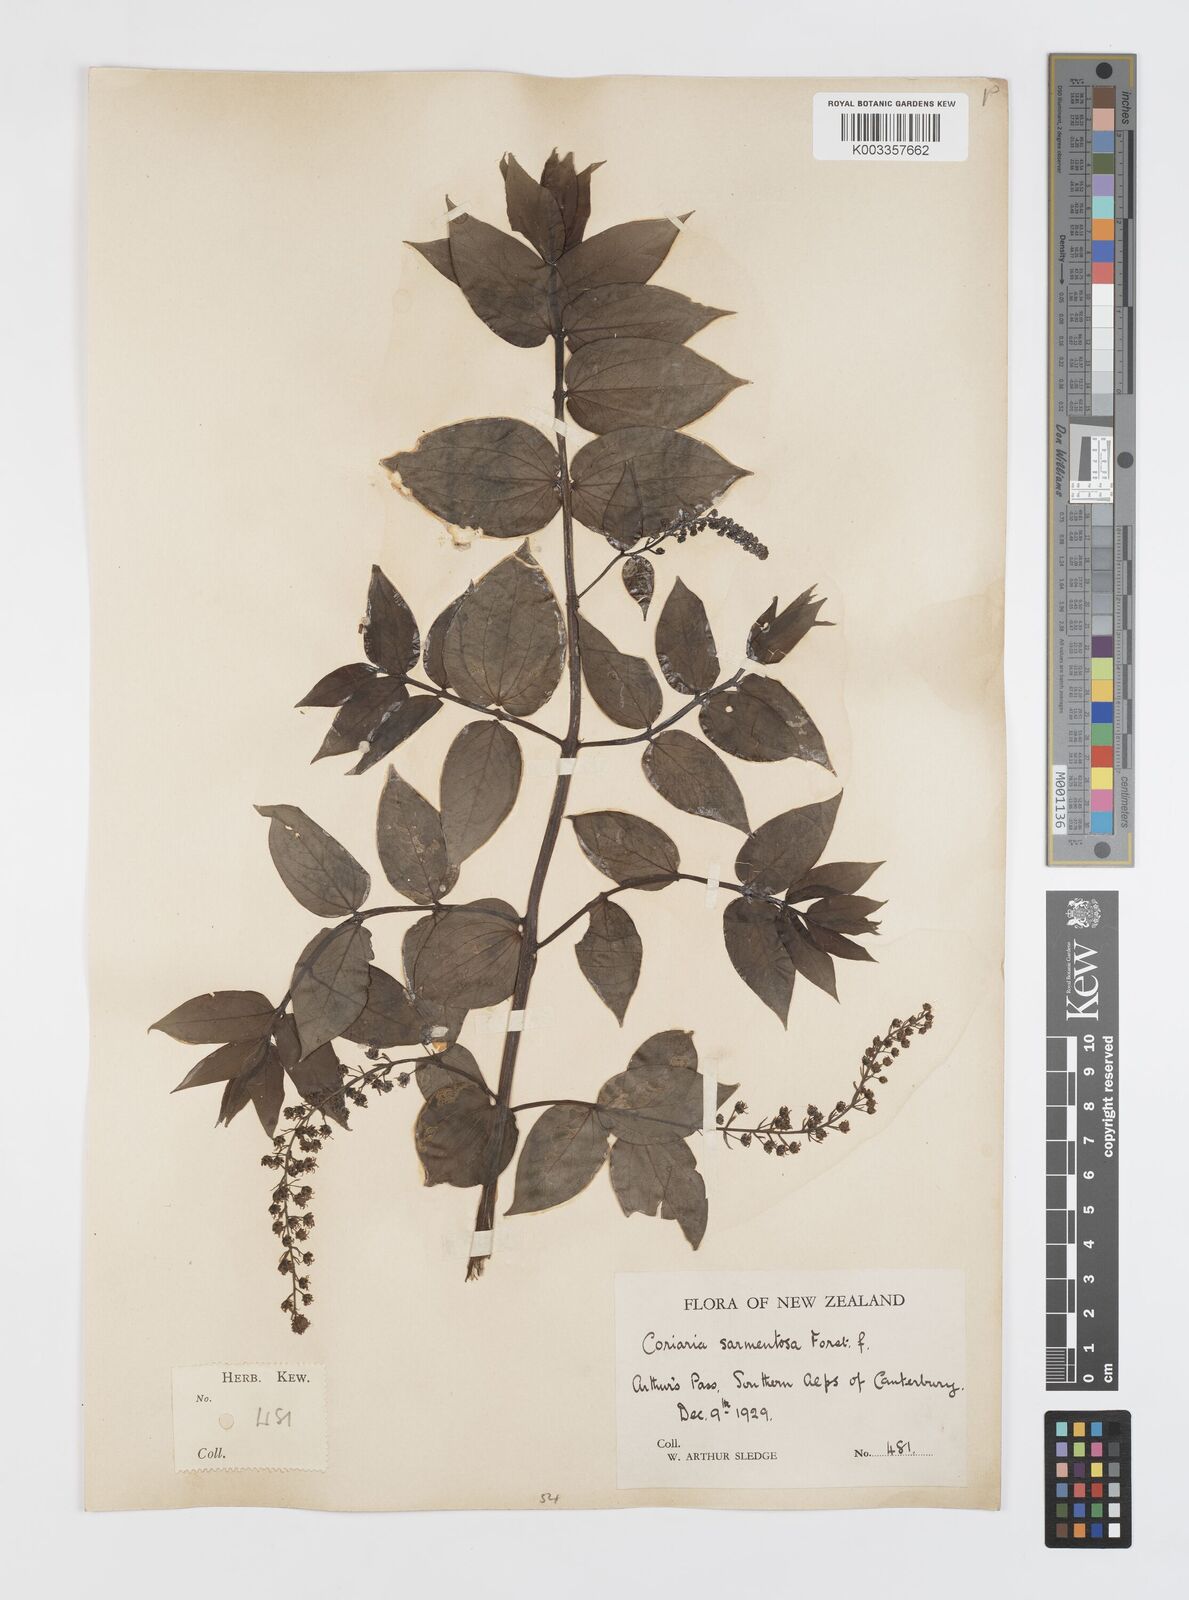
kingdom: Plantae
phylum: Tracheophyta
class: Magnoliopsida
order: Cucurbitales
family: Coriariaceae
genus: Coriaria
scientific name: Coriaria ruscifolia
